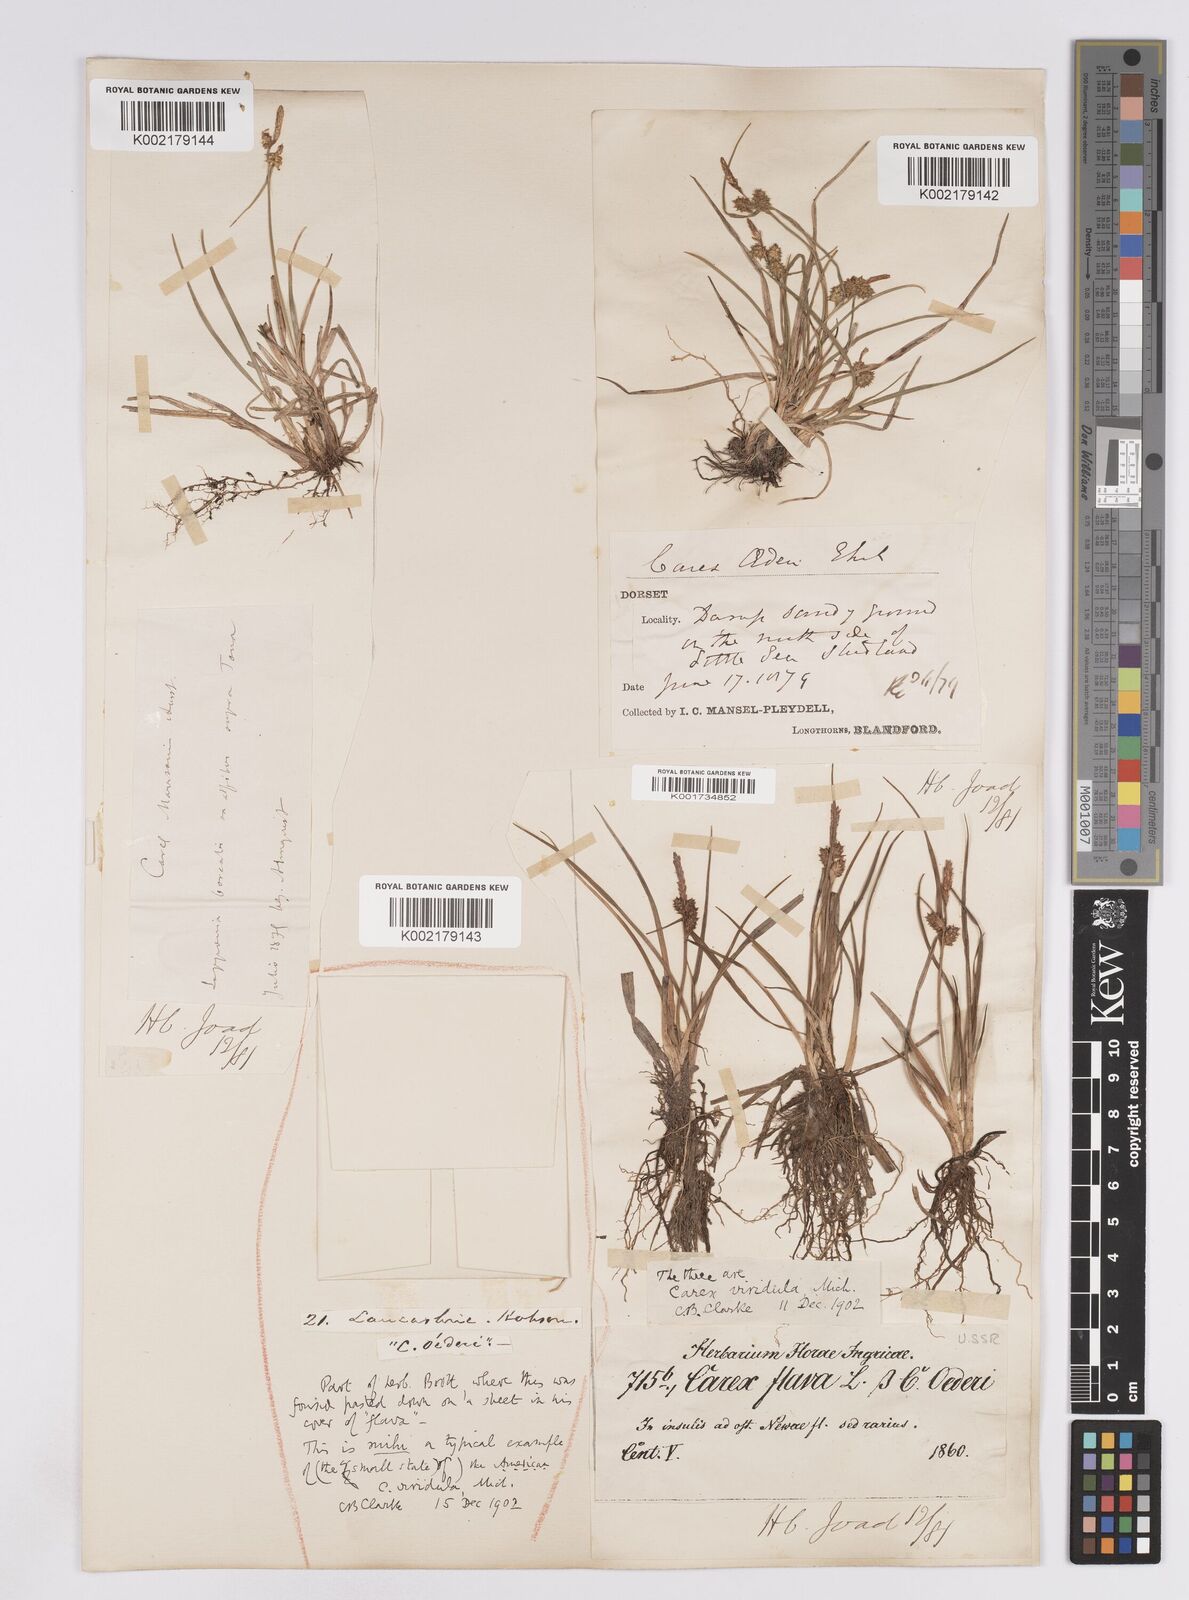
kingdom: Plantae
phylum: Tracheophyta
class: Liliopsida
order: Poales
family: Cyperaceae
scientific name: Cyperaceae
